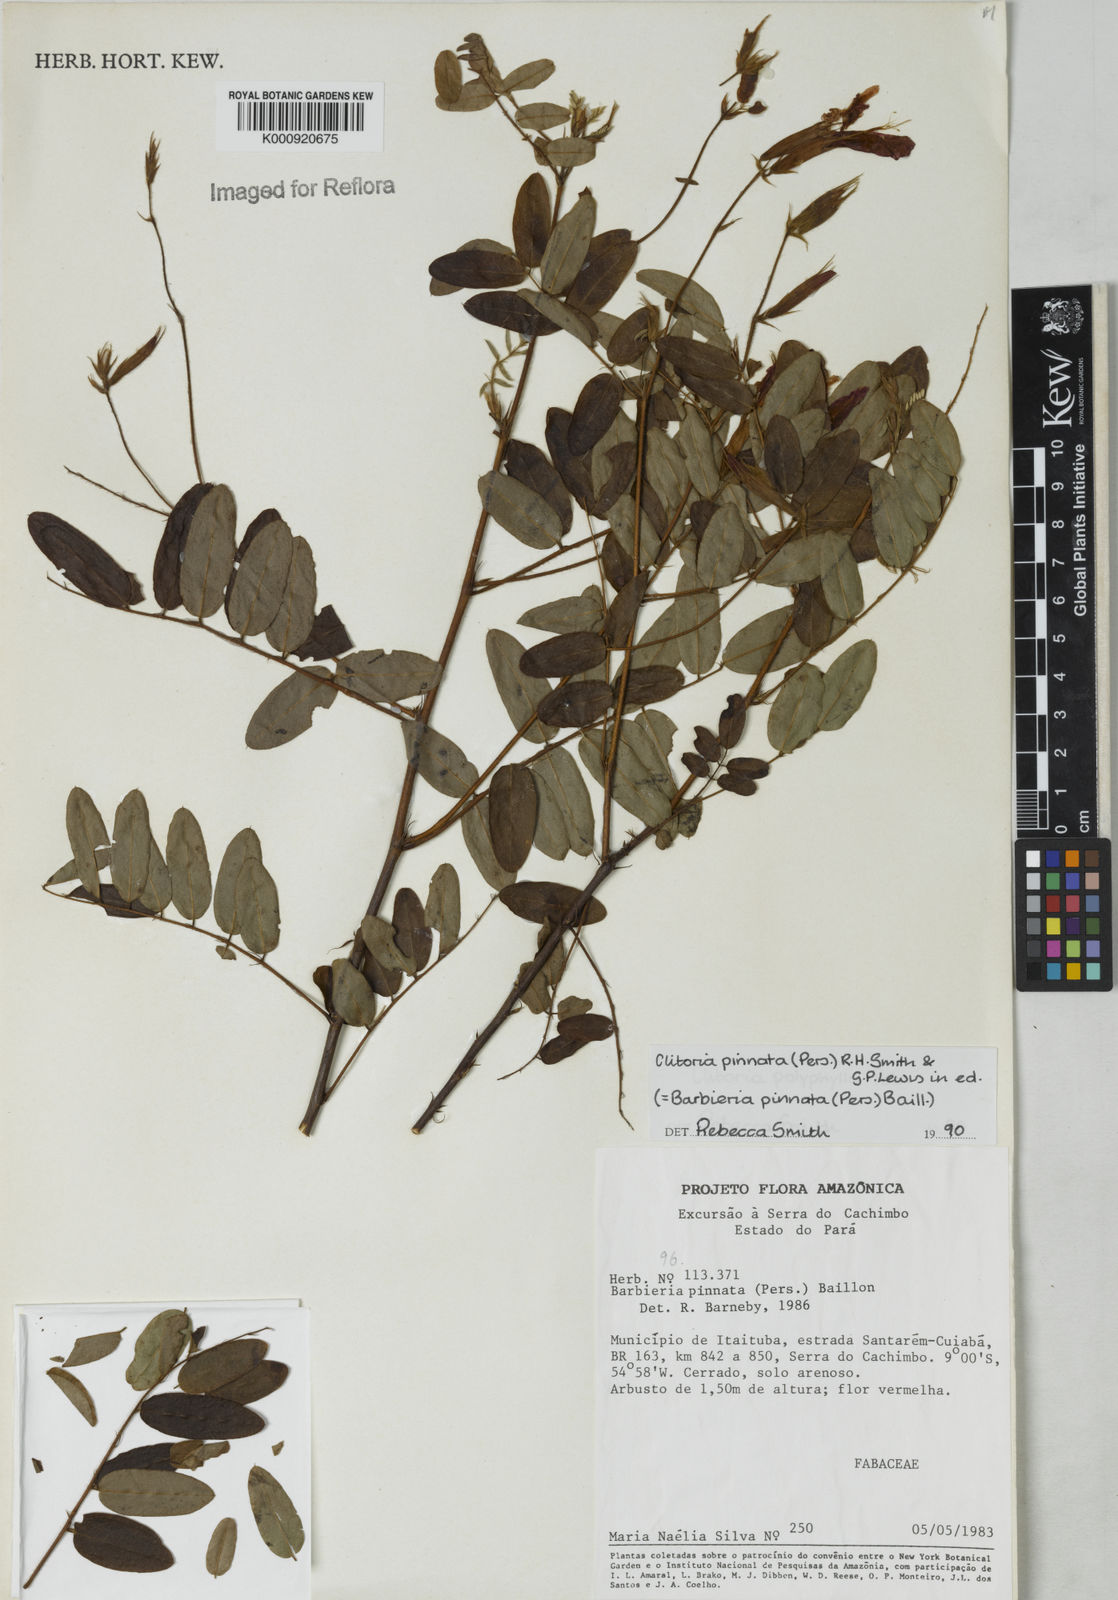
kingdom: Plantae
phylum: Tracheophyta
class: Magnoliopsida
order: Fabales
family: Fabaceae
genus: Barbieria
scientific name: Barbieria pinnata
